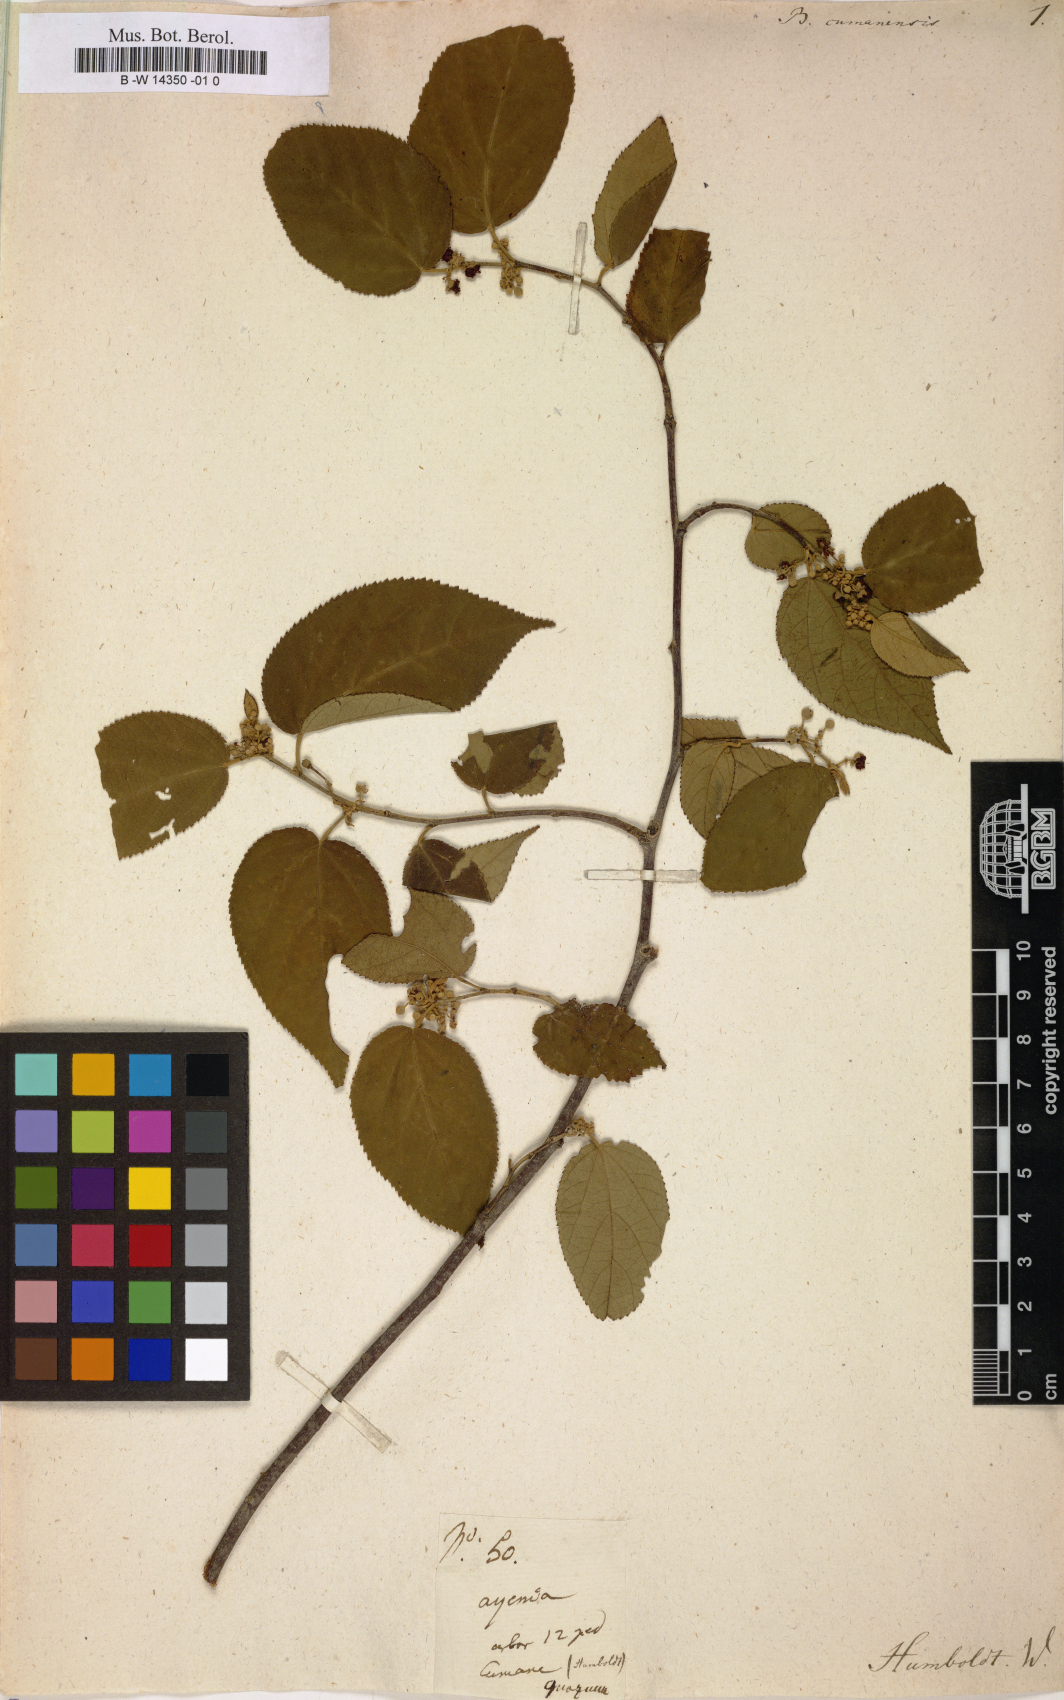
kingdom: Plantae
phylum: Tracheophyta
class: Magnoliopsida
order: Malvales
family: Malvaceae
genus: Guazuma
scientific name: Guazuma
